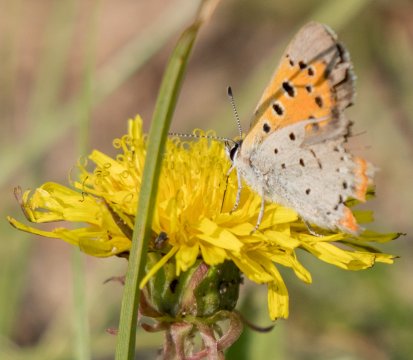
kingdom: Animalia
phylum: Arthropoda
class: Insecta
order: Lepidoptera
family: Lycaenidae
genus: Lycaena
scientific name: Lycaena phlaeas
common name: American Copper
